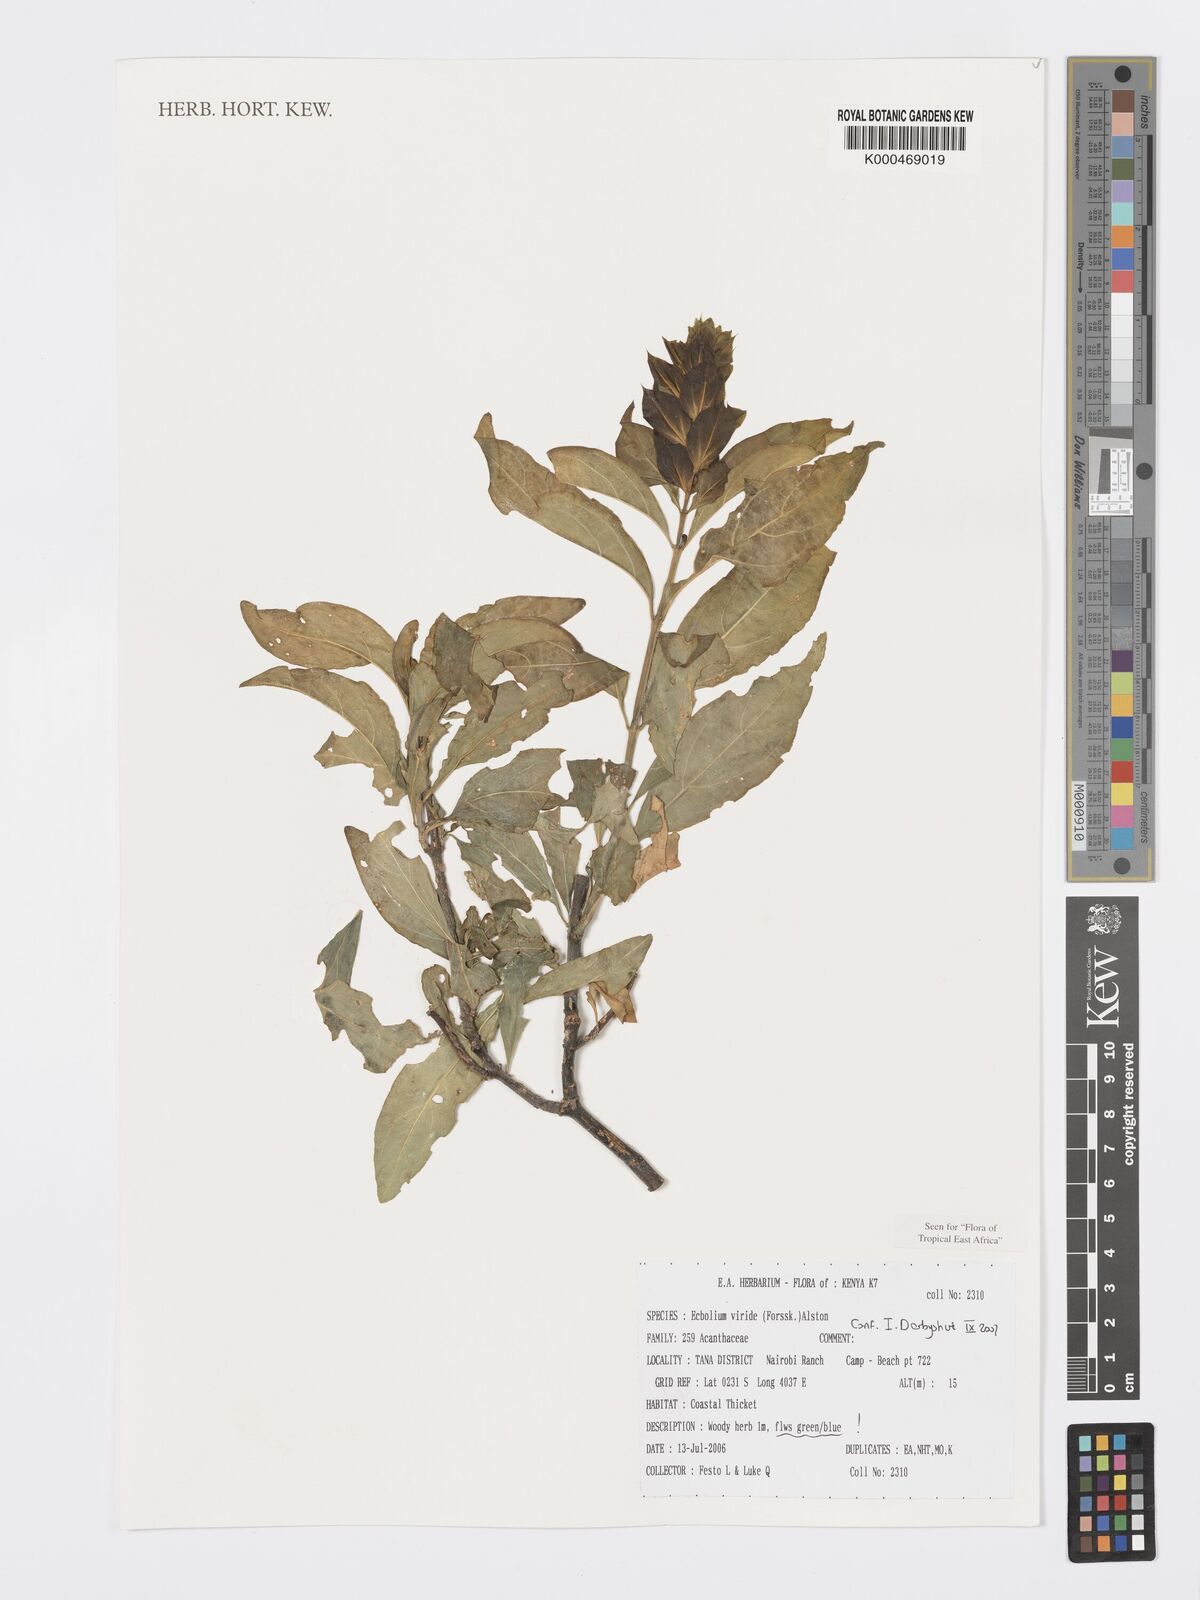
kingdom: Plantae
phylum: Tracheophyta
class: Magnoliopsida
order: Lamiales
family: Acanthaceae
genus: Ecbolium
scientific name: Ecbolium viride
